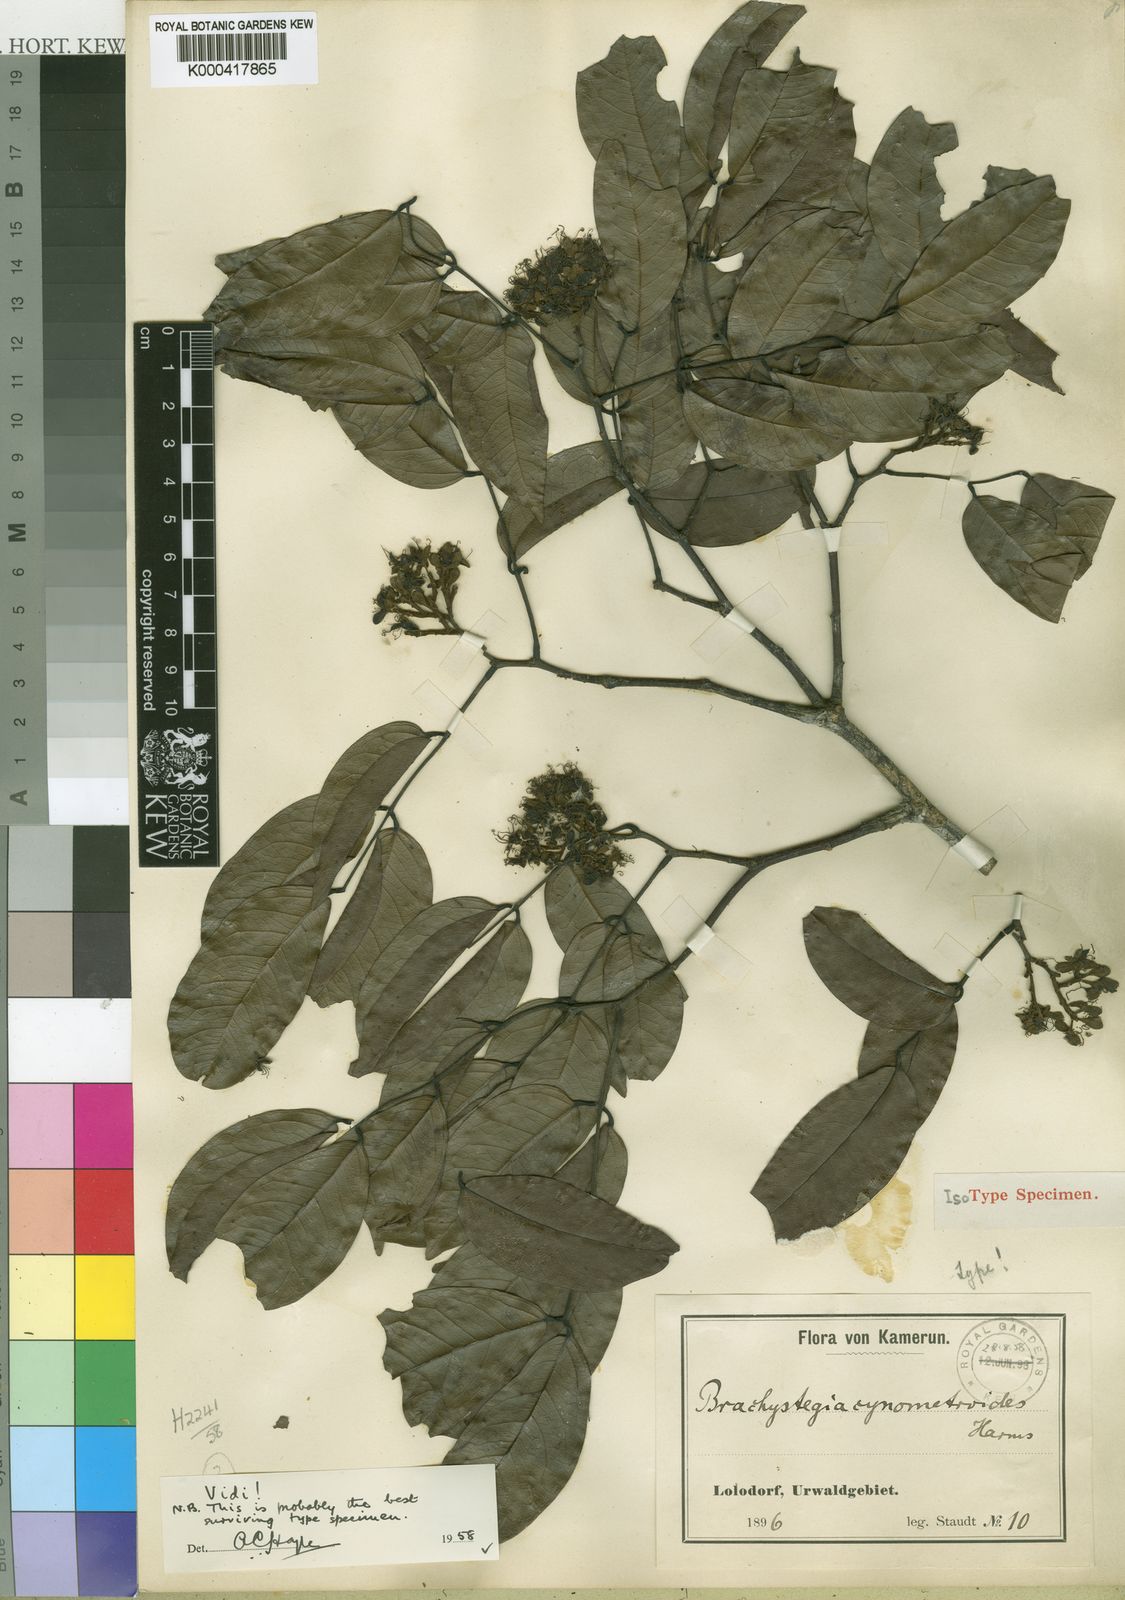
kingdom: Plantae
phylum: Tracheophyta
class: Magnoliopsida
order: Fabales
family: Fabaceae
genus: Brachystegia
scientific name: Brachystegia cynometroides
